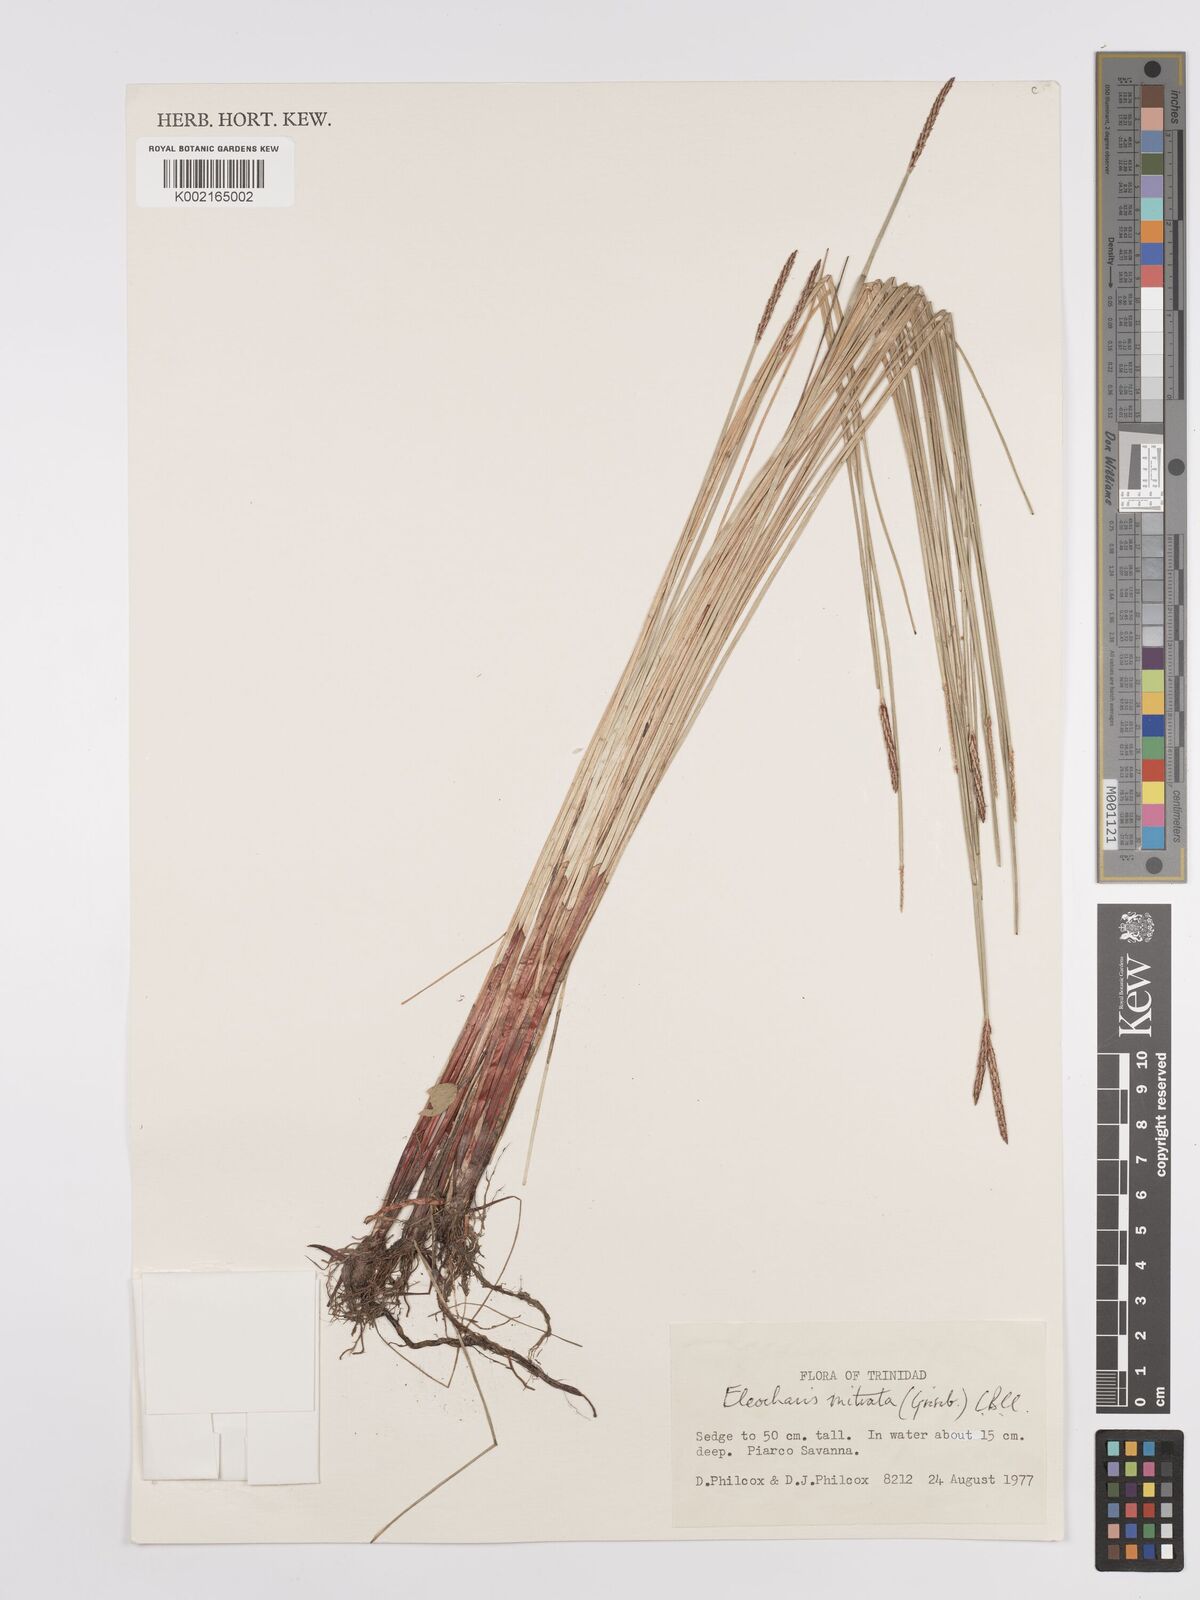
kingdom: Plantae
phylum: Tracheophyta
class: Liliopsida
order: Poales
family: Cyperaceae
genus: Eleocharis
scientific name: Eleocharis tiarata
